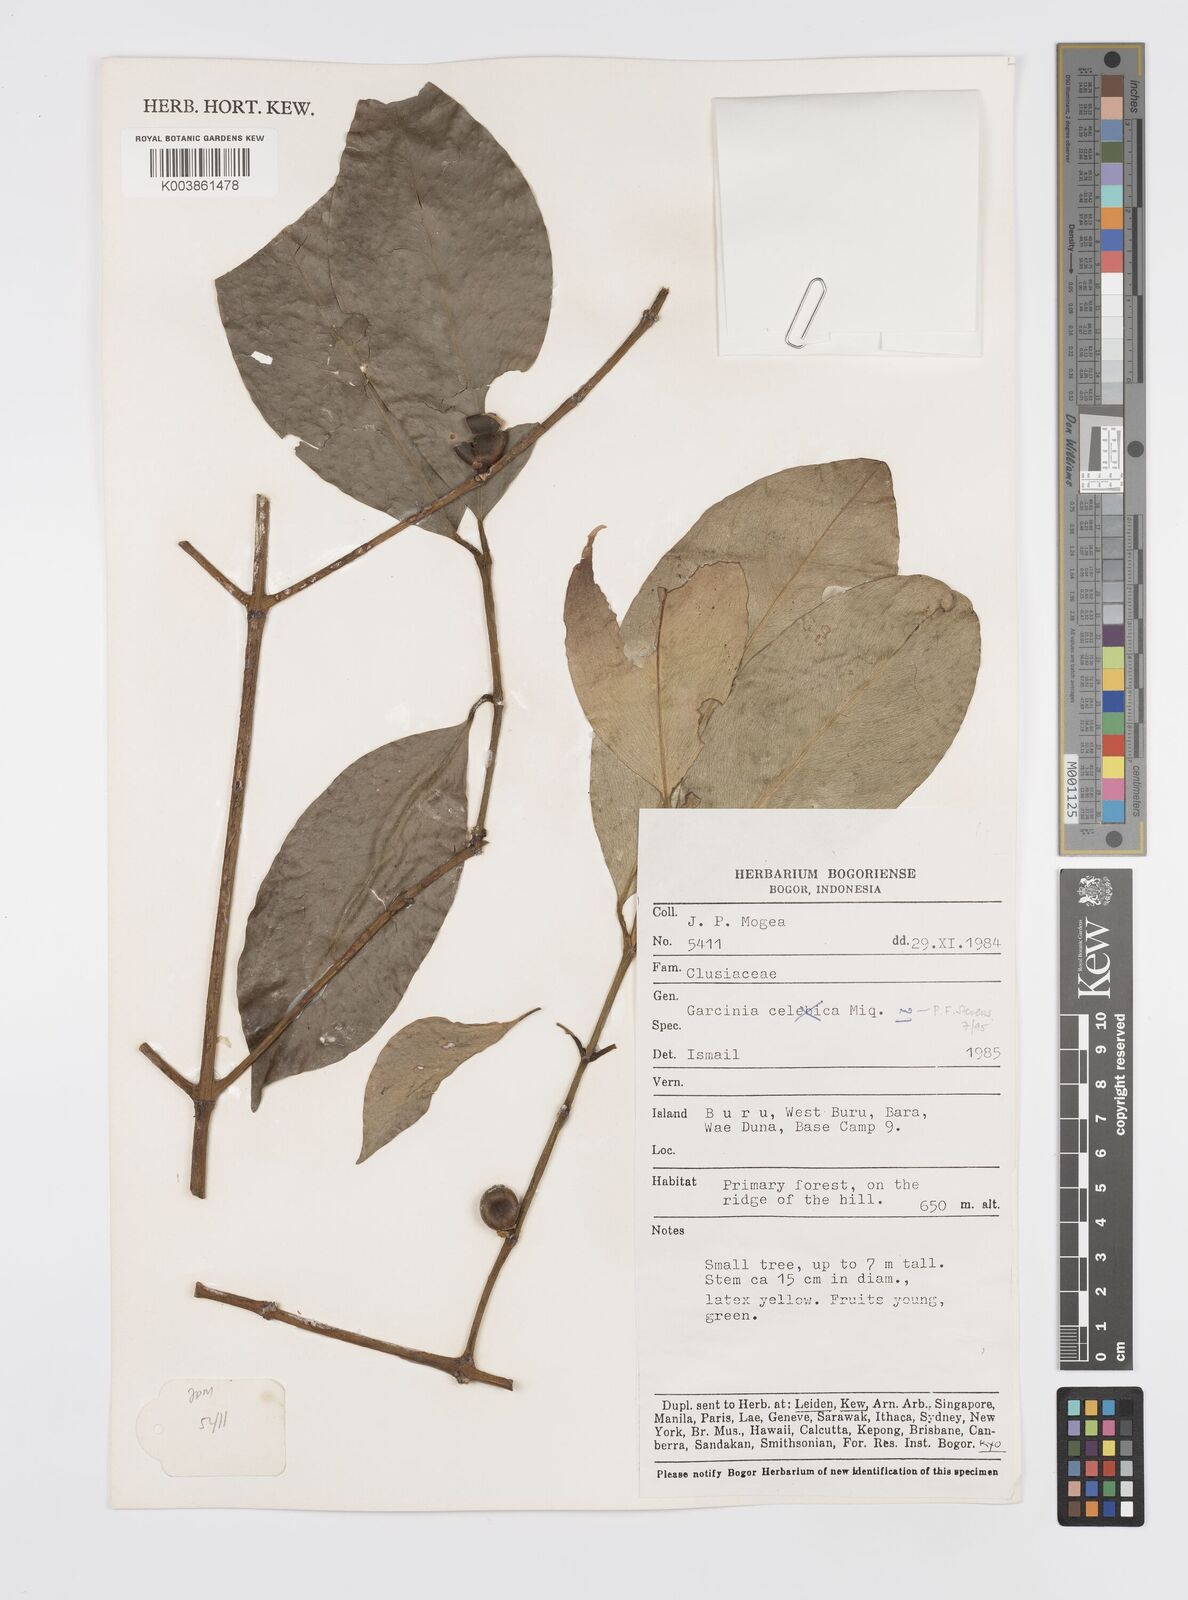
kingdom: Plantae
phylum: Tracheophyta
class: Magnoliopsida
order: Malpighiales
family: Clusiaceae
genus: Garcinia
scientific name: Garcinia
